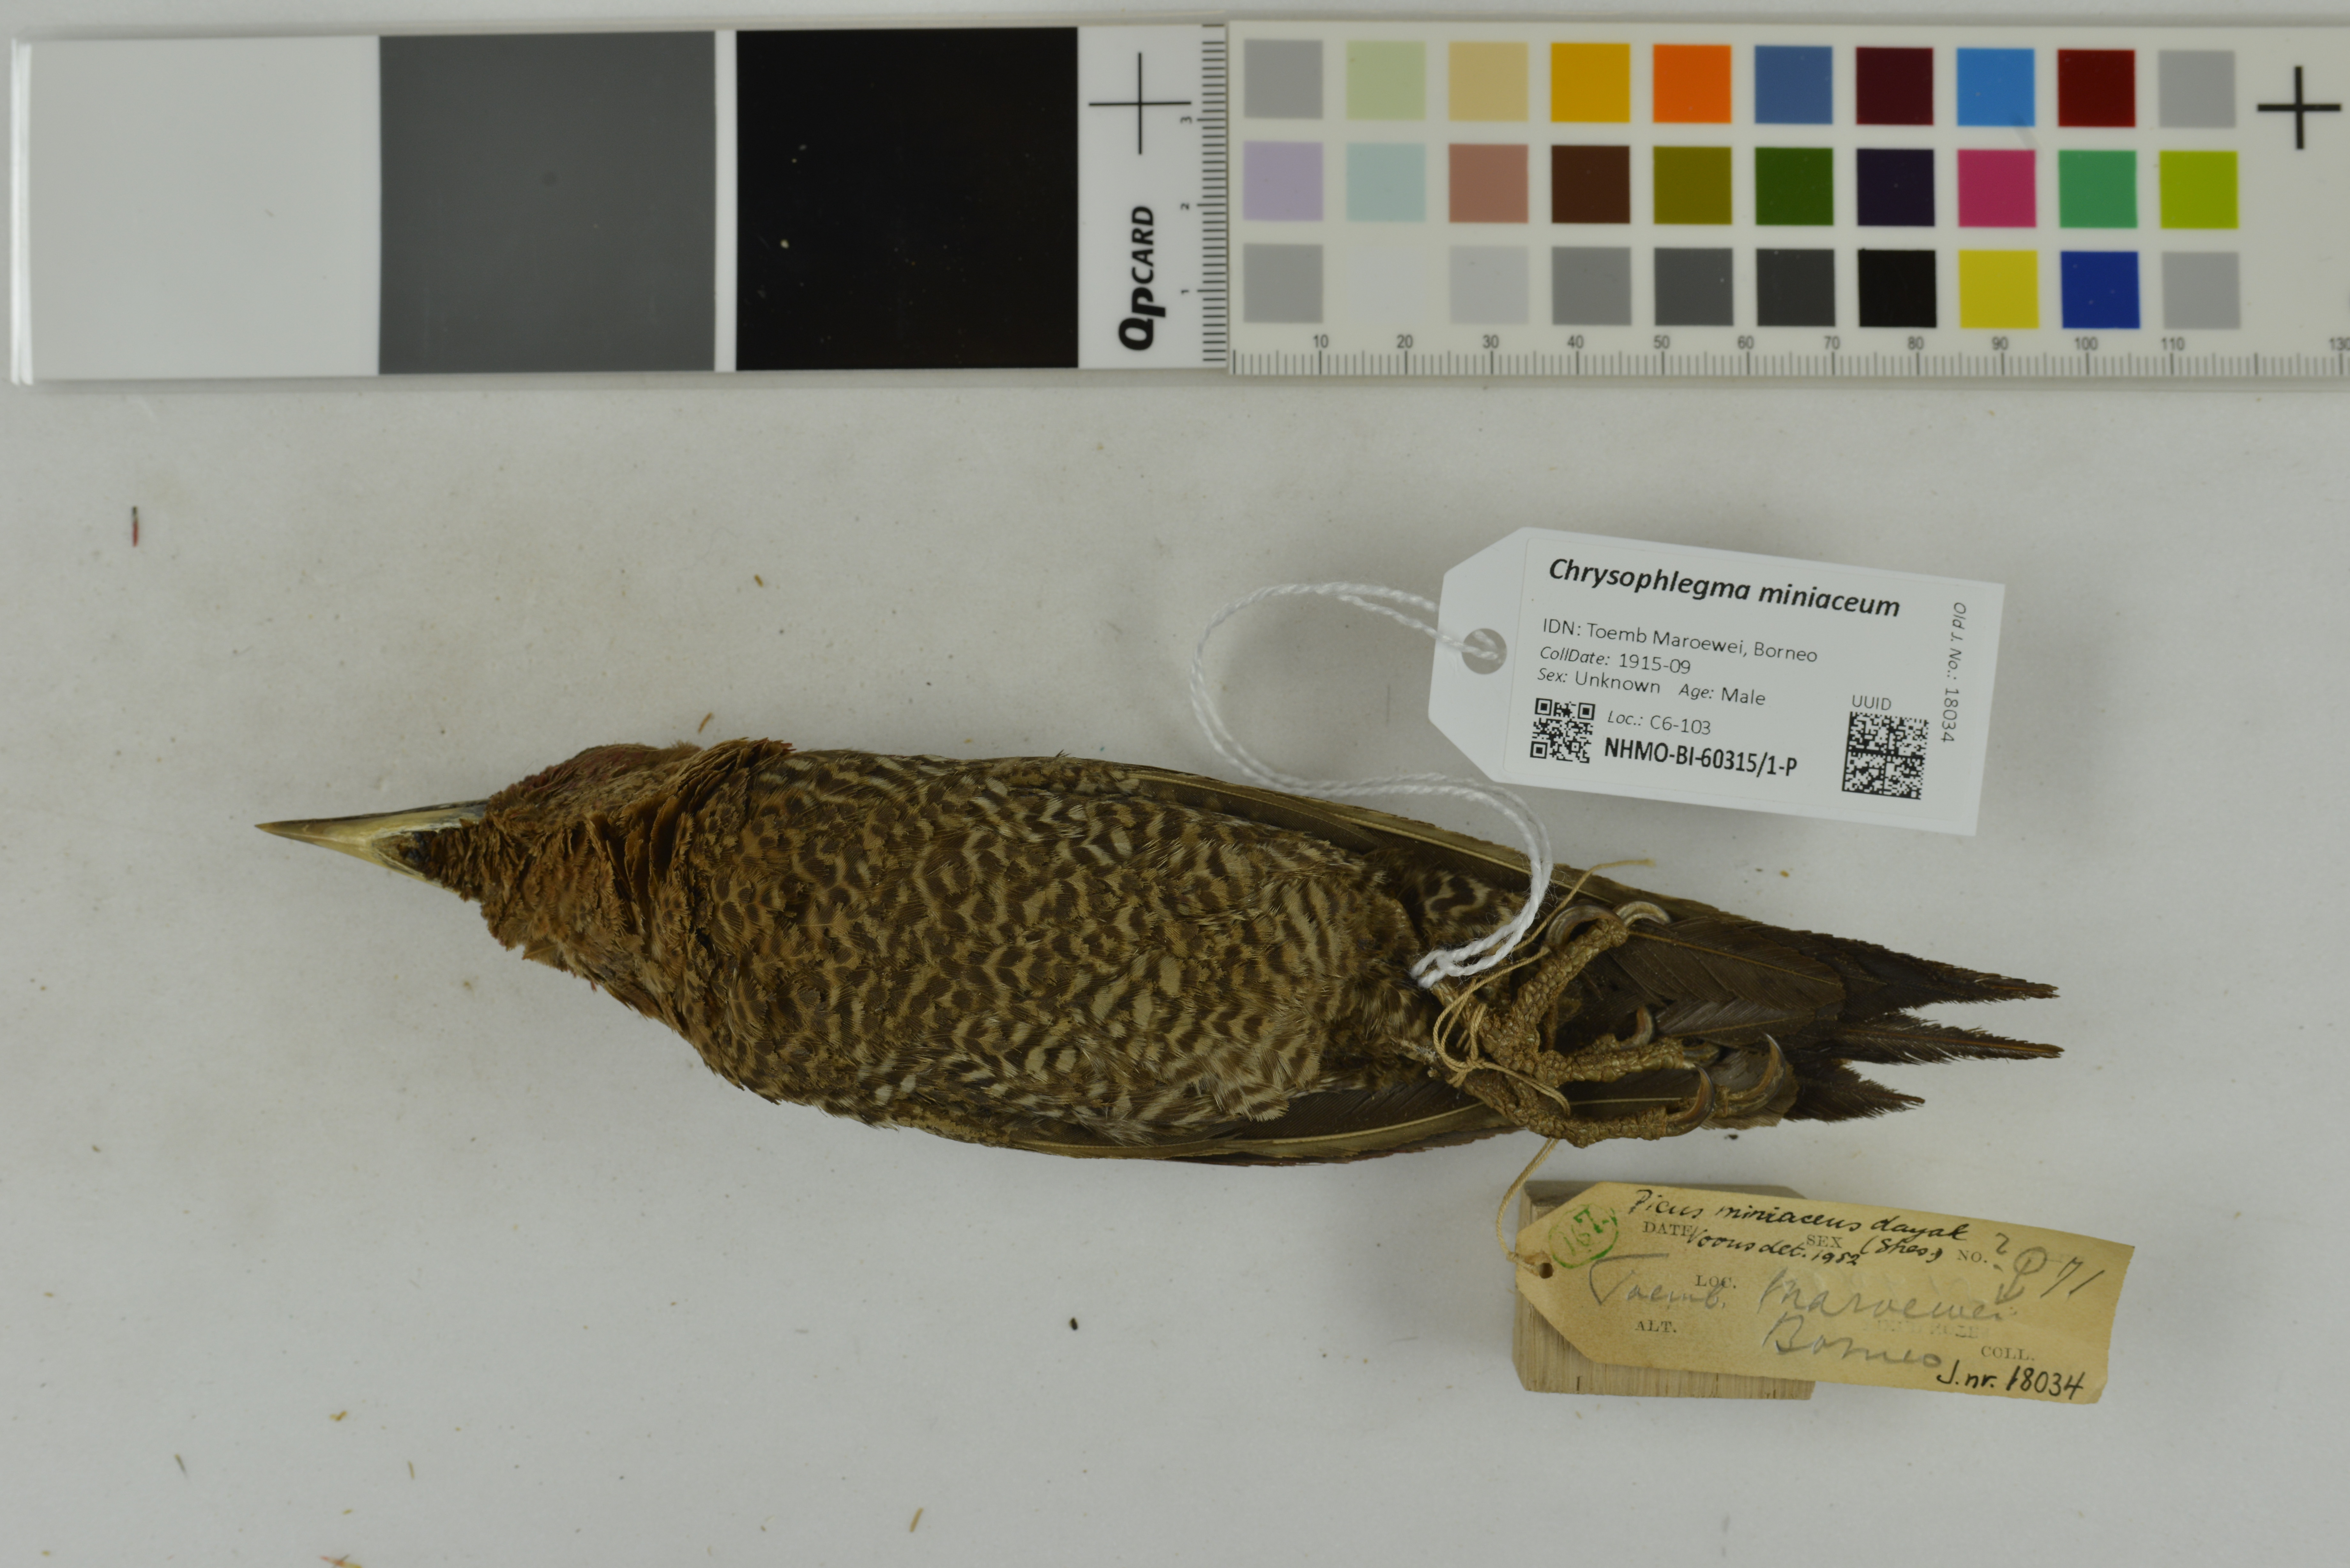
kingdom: Animalia
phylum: Chordata
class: Aves
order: Piciformes
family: Picidae
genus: Chrysophlegma
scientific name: Chrysophlegma miniaceum
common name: Banded woodpecker
